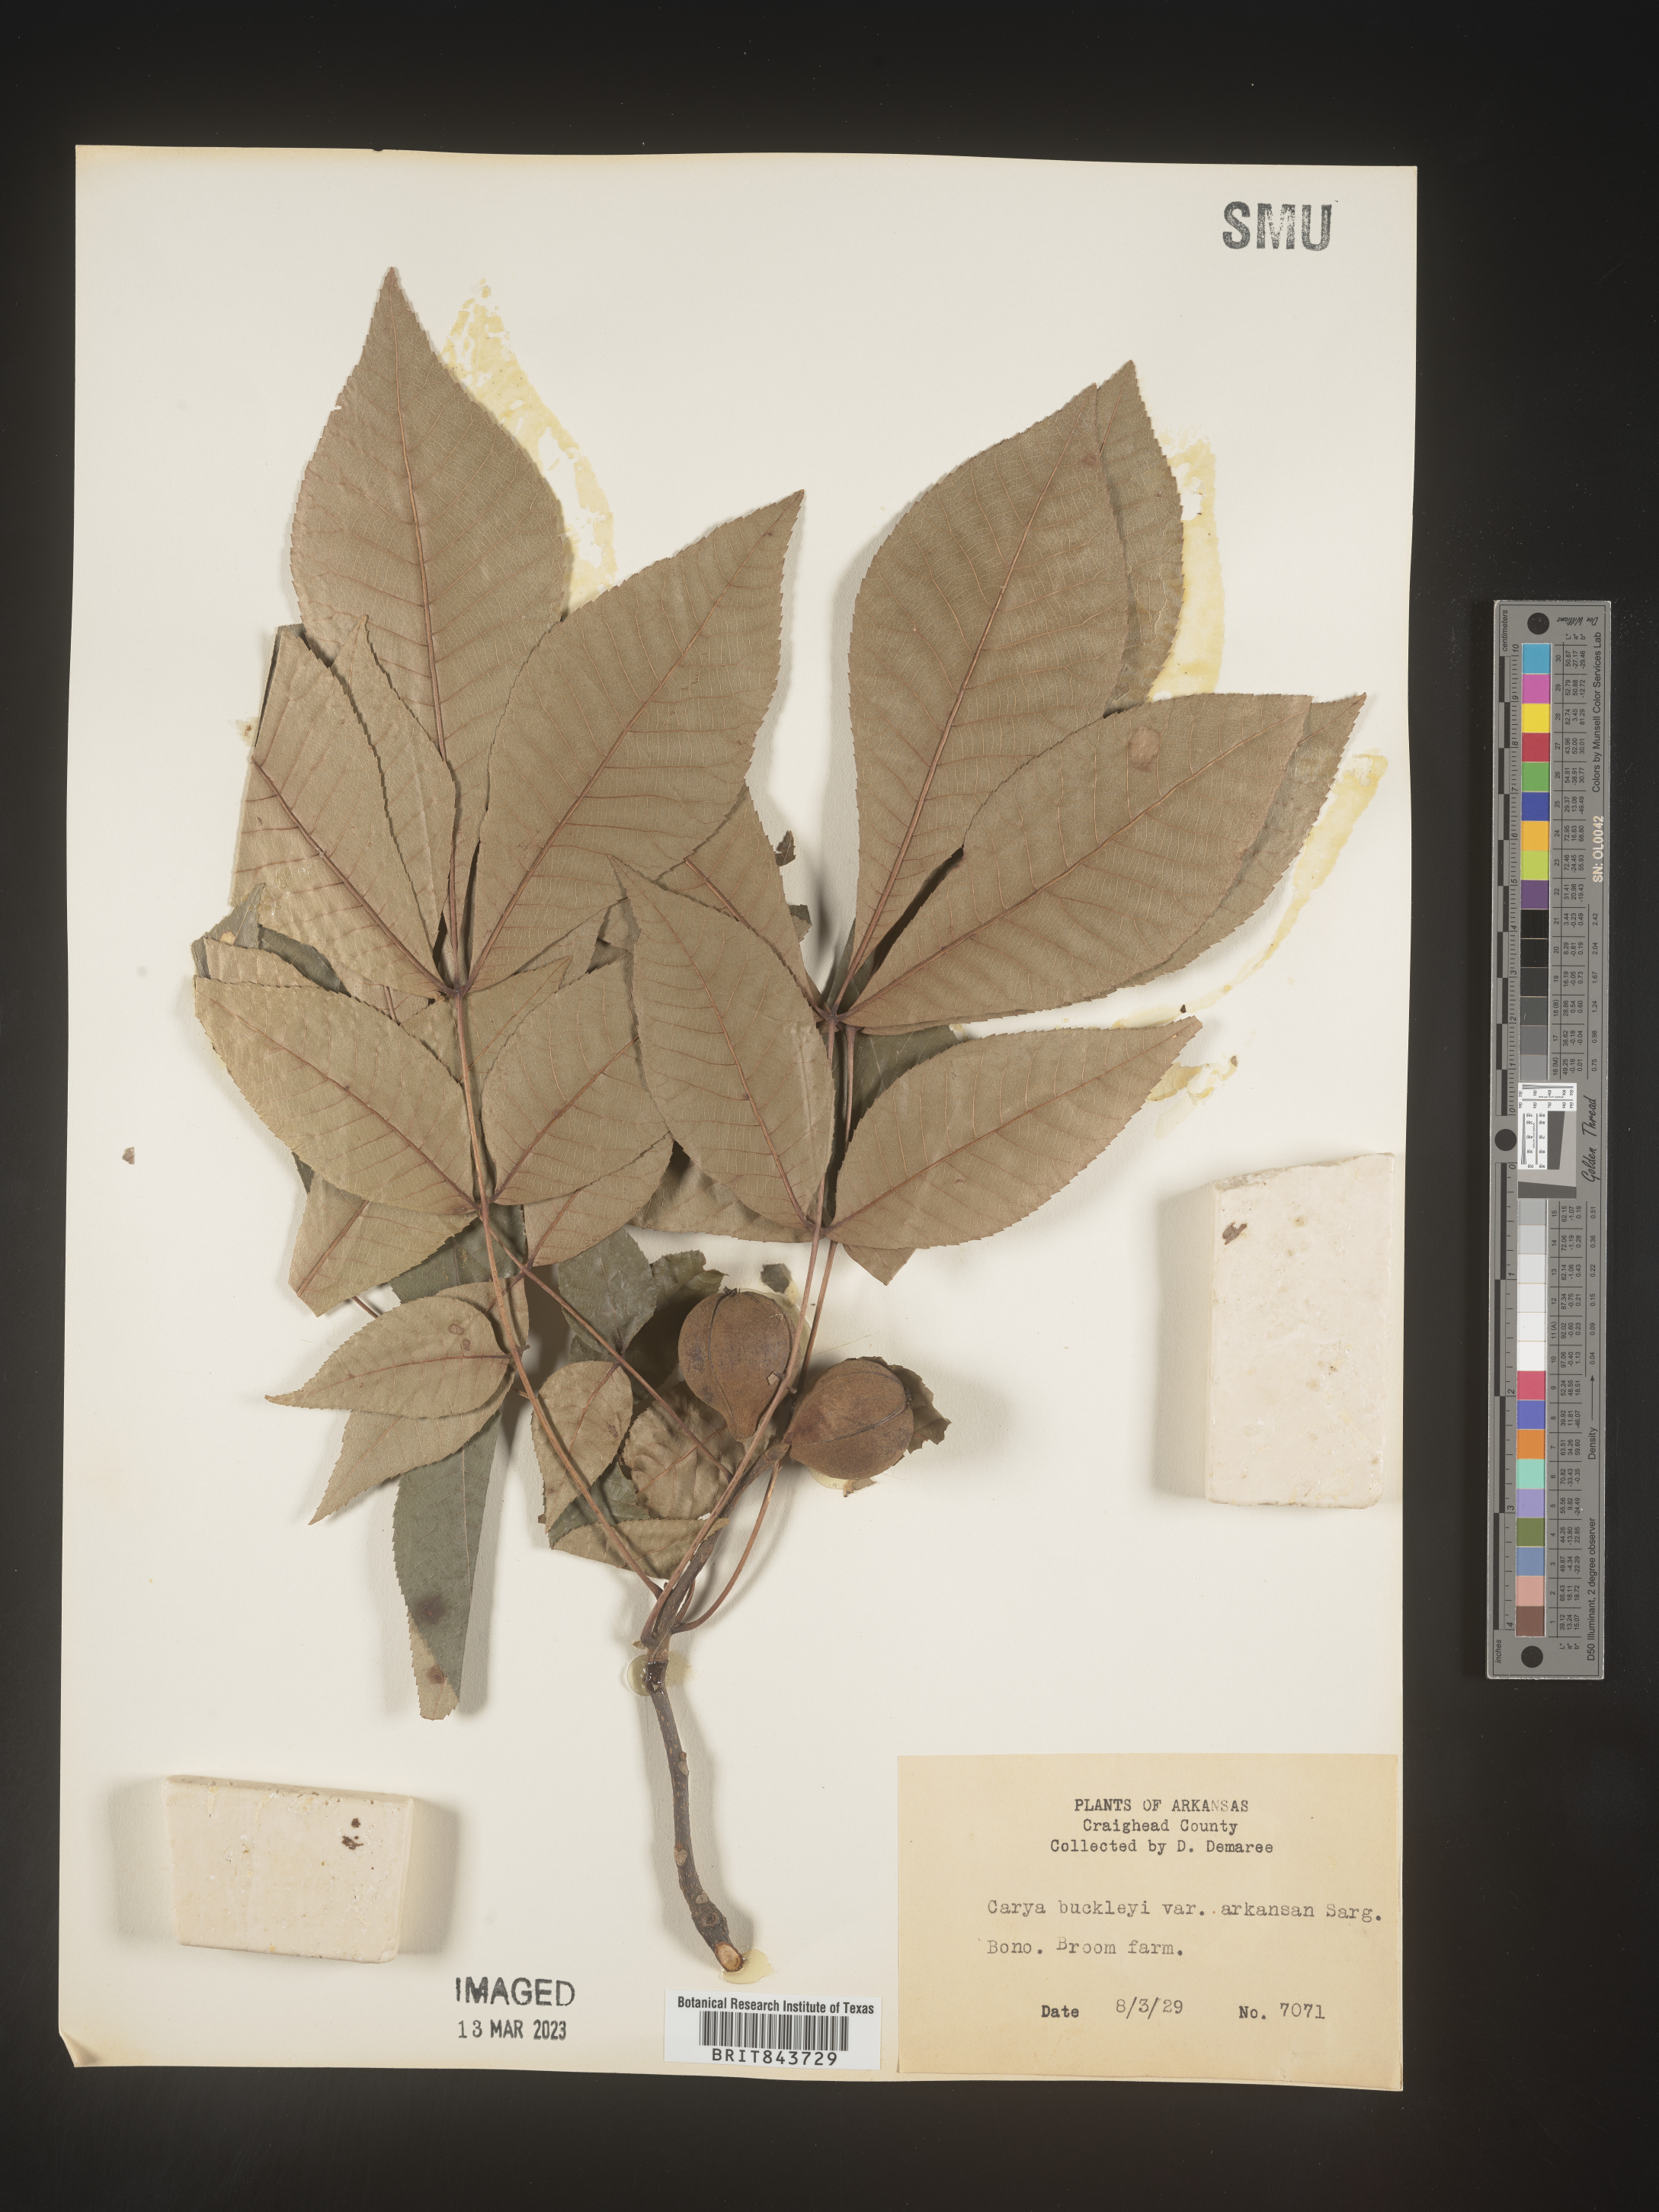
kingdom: Plantae
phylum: Tracheophyta
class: Magnoliopsida
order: Fagales
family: Juglandaceae
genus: Carya
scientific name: Carya texana
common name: Black hickory
